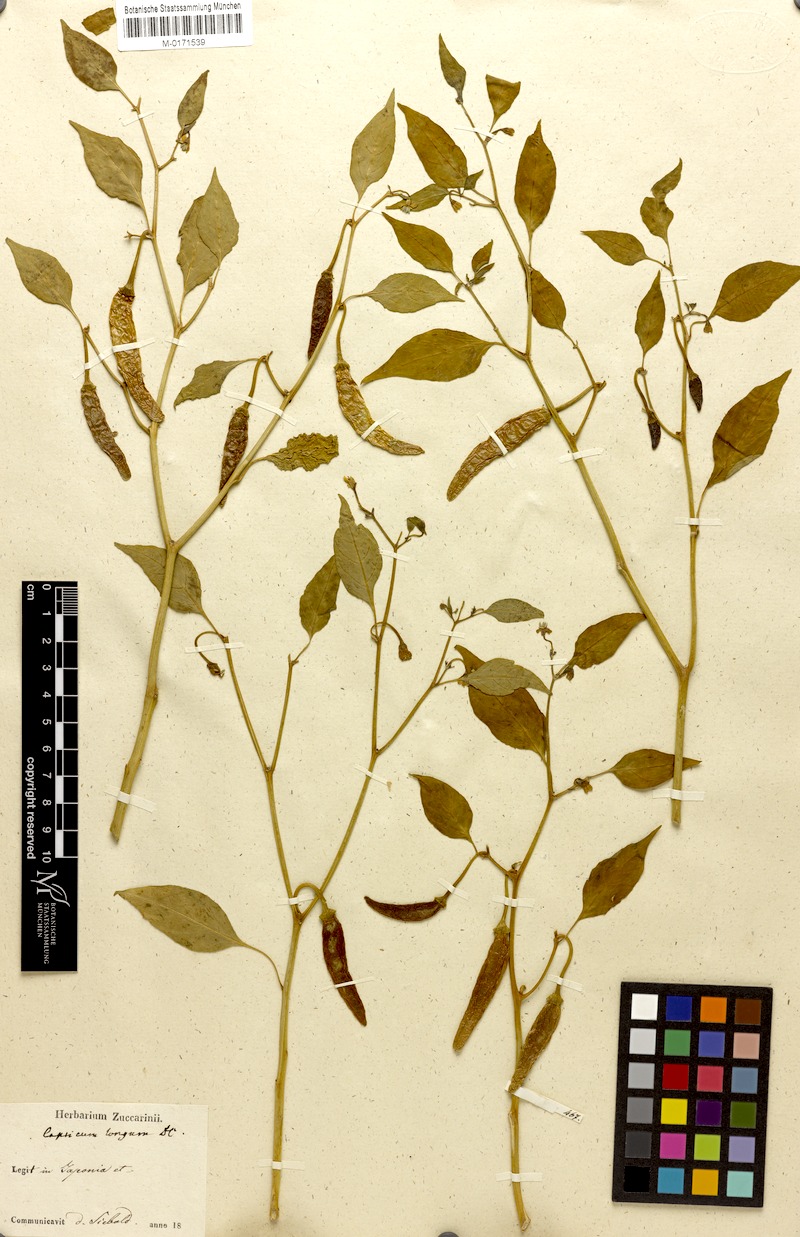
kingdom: Plantae
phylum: Tracheophyta
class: Magnoliopsida
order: Solanales
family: Solanaceae
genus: Capsicum
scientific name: Capsicum annuum
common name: Sweet pepper
